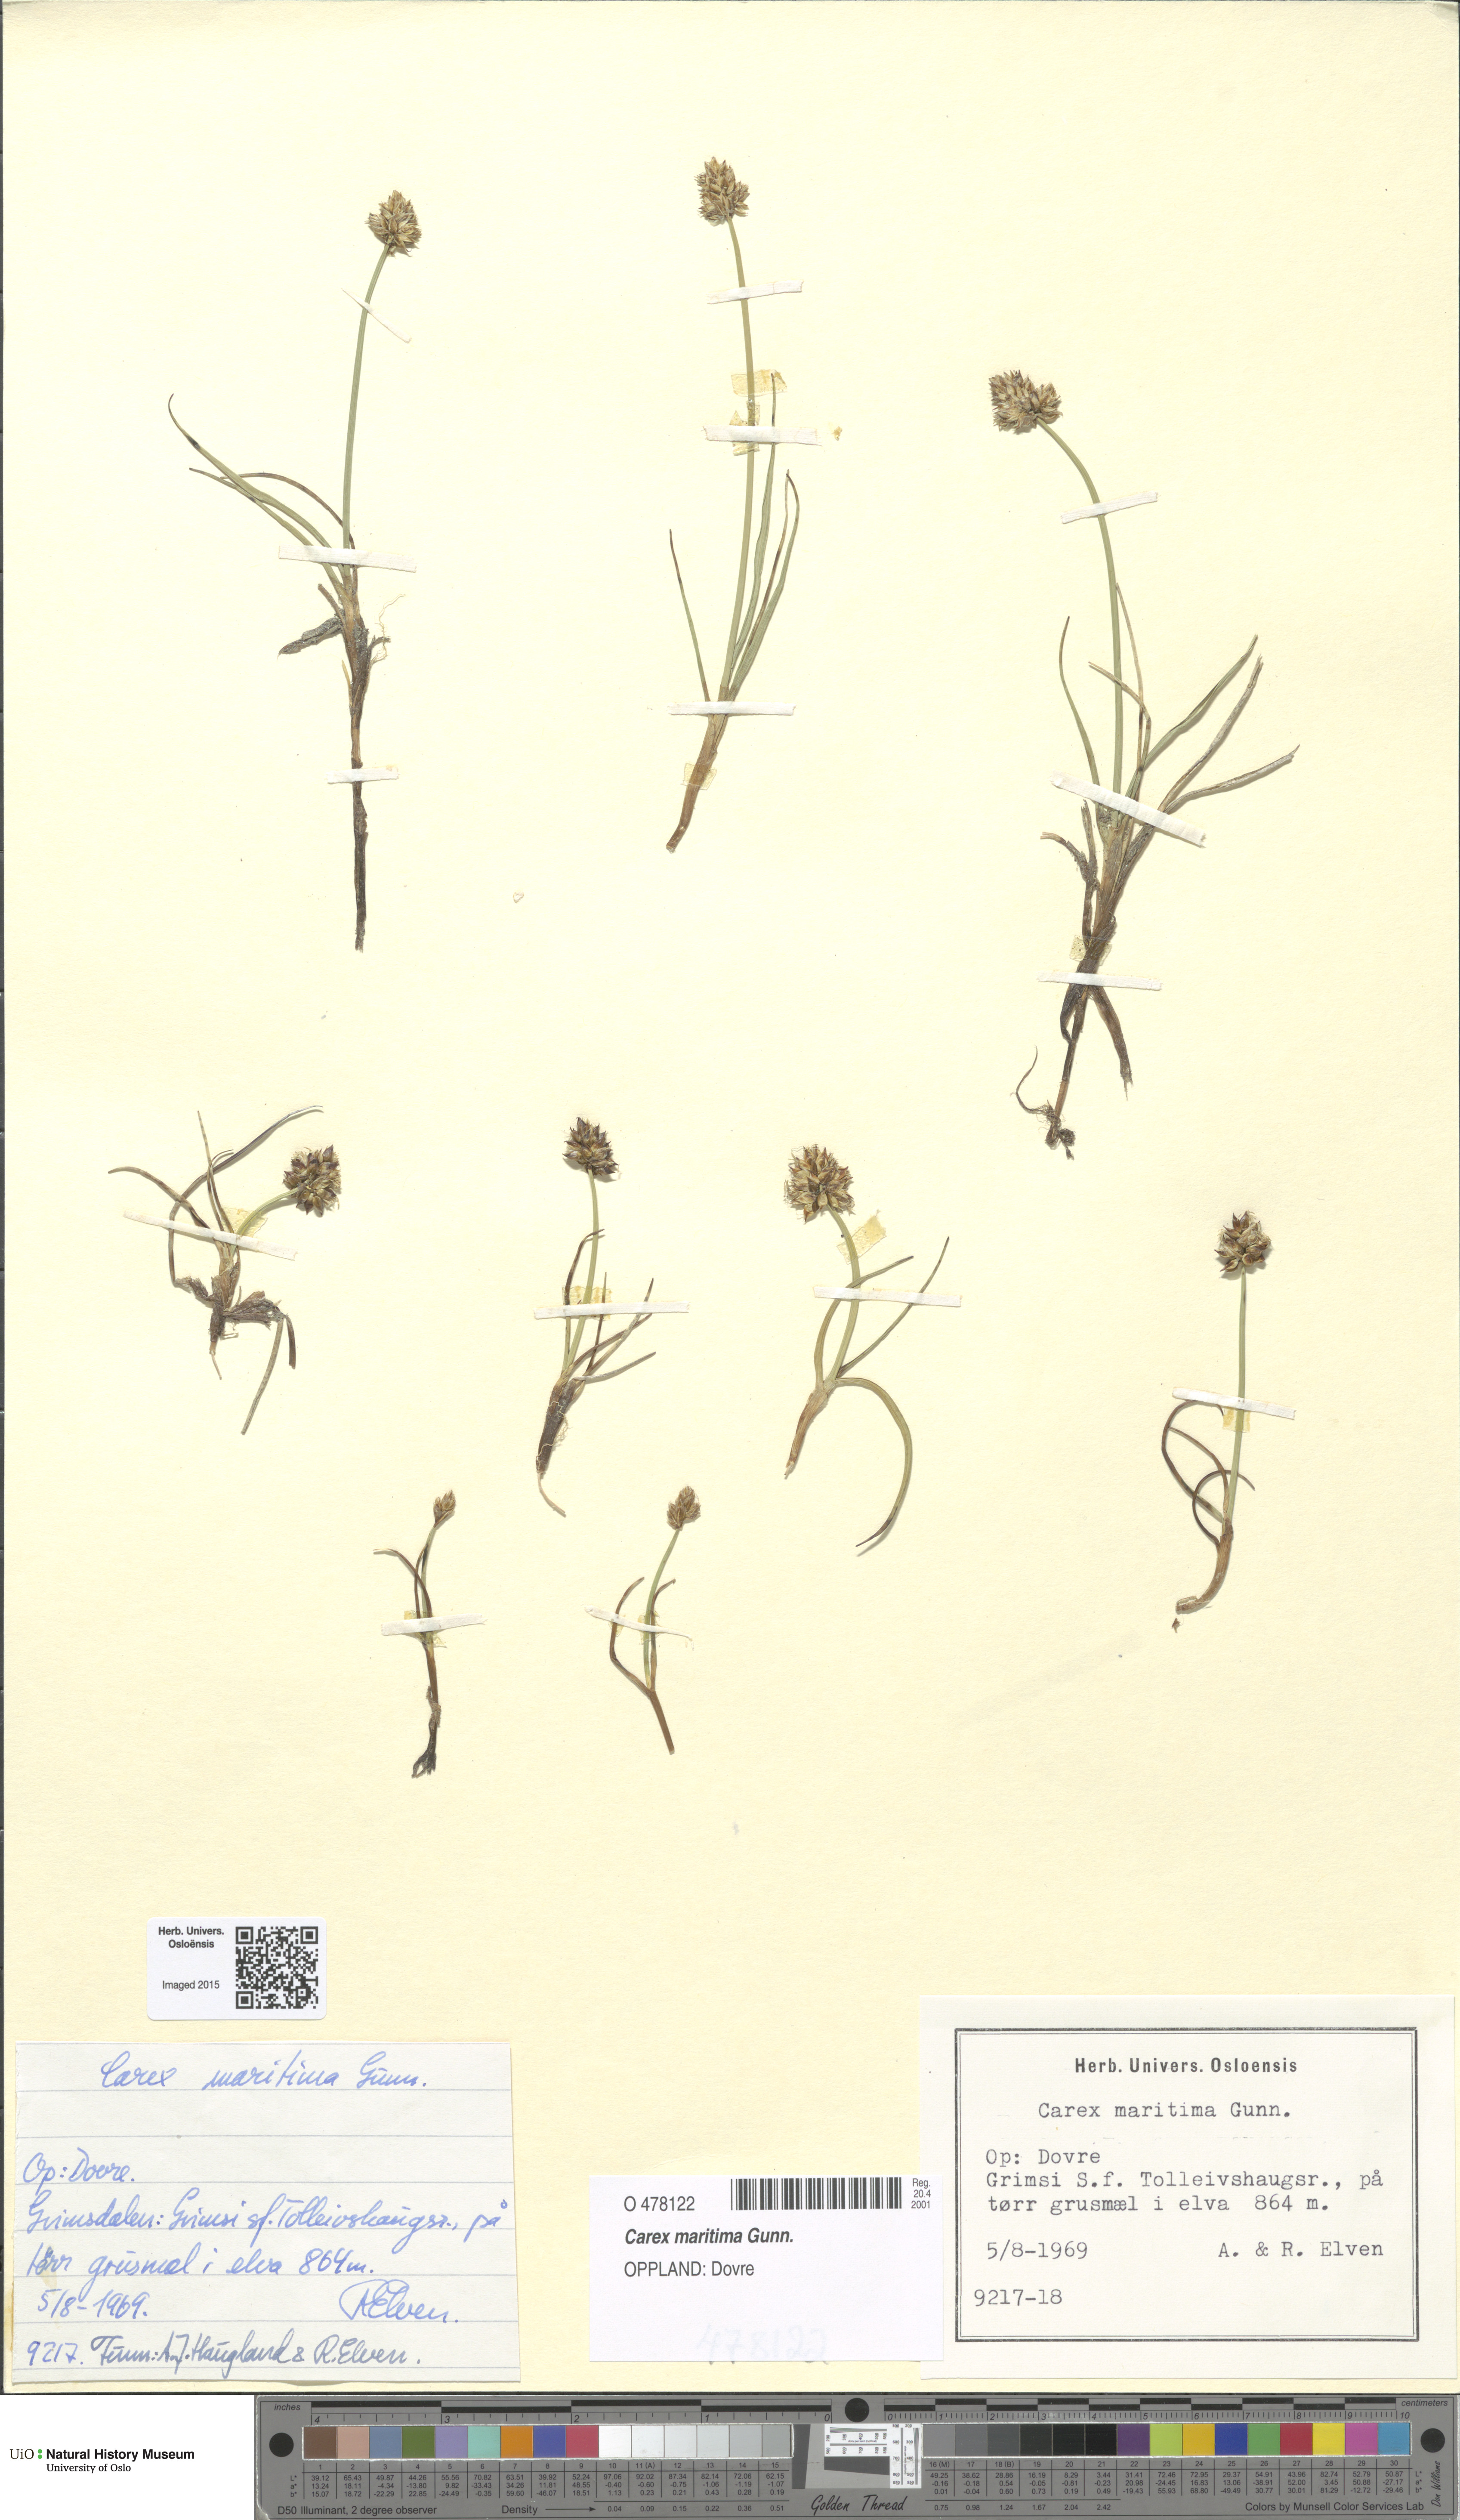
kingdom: Plantae
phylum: Tracheophyta
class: Liliopsida
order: Poales
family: Cyperaceae
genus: Carex
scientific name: Carex maritima
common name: Curved sedge
